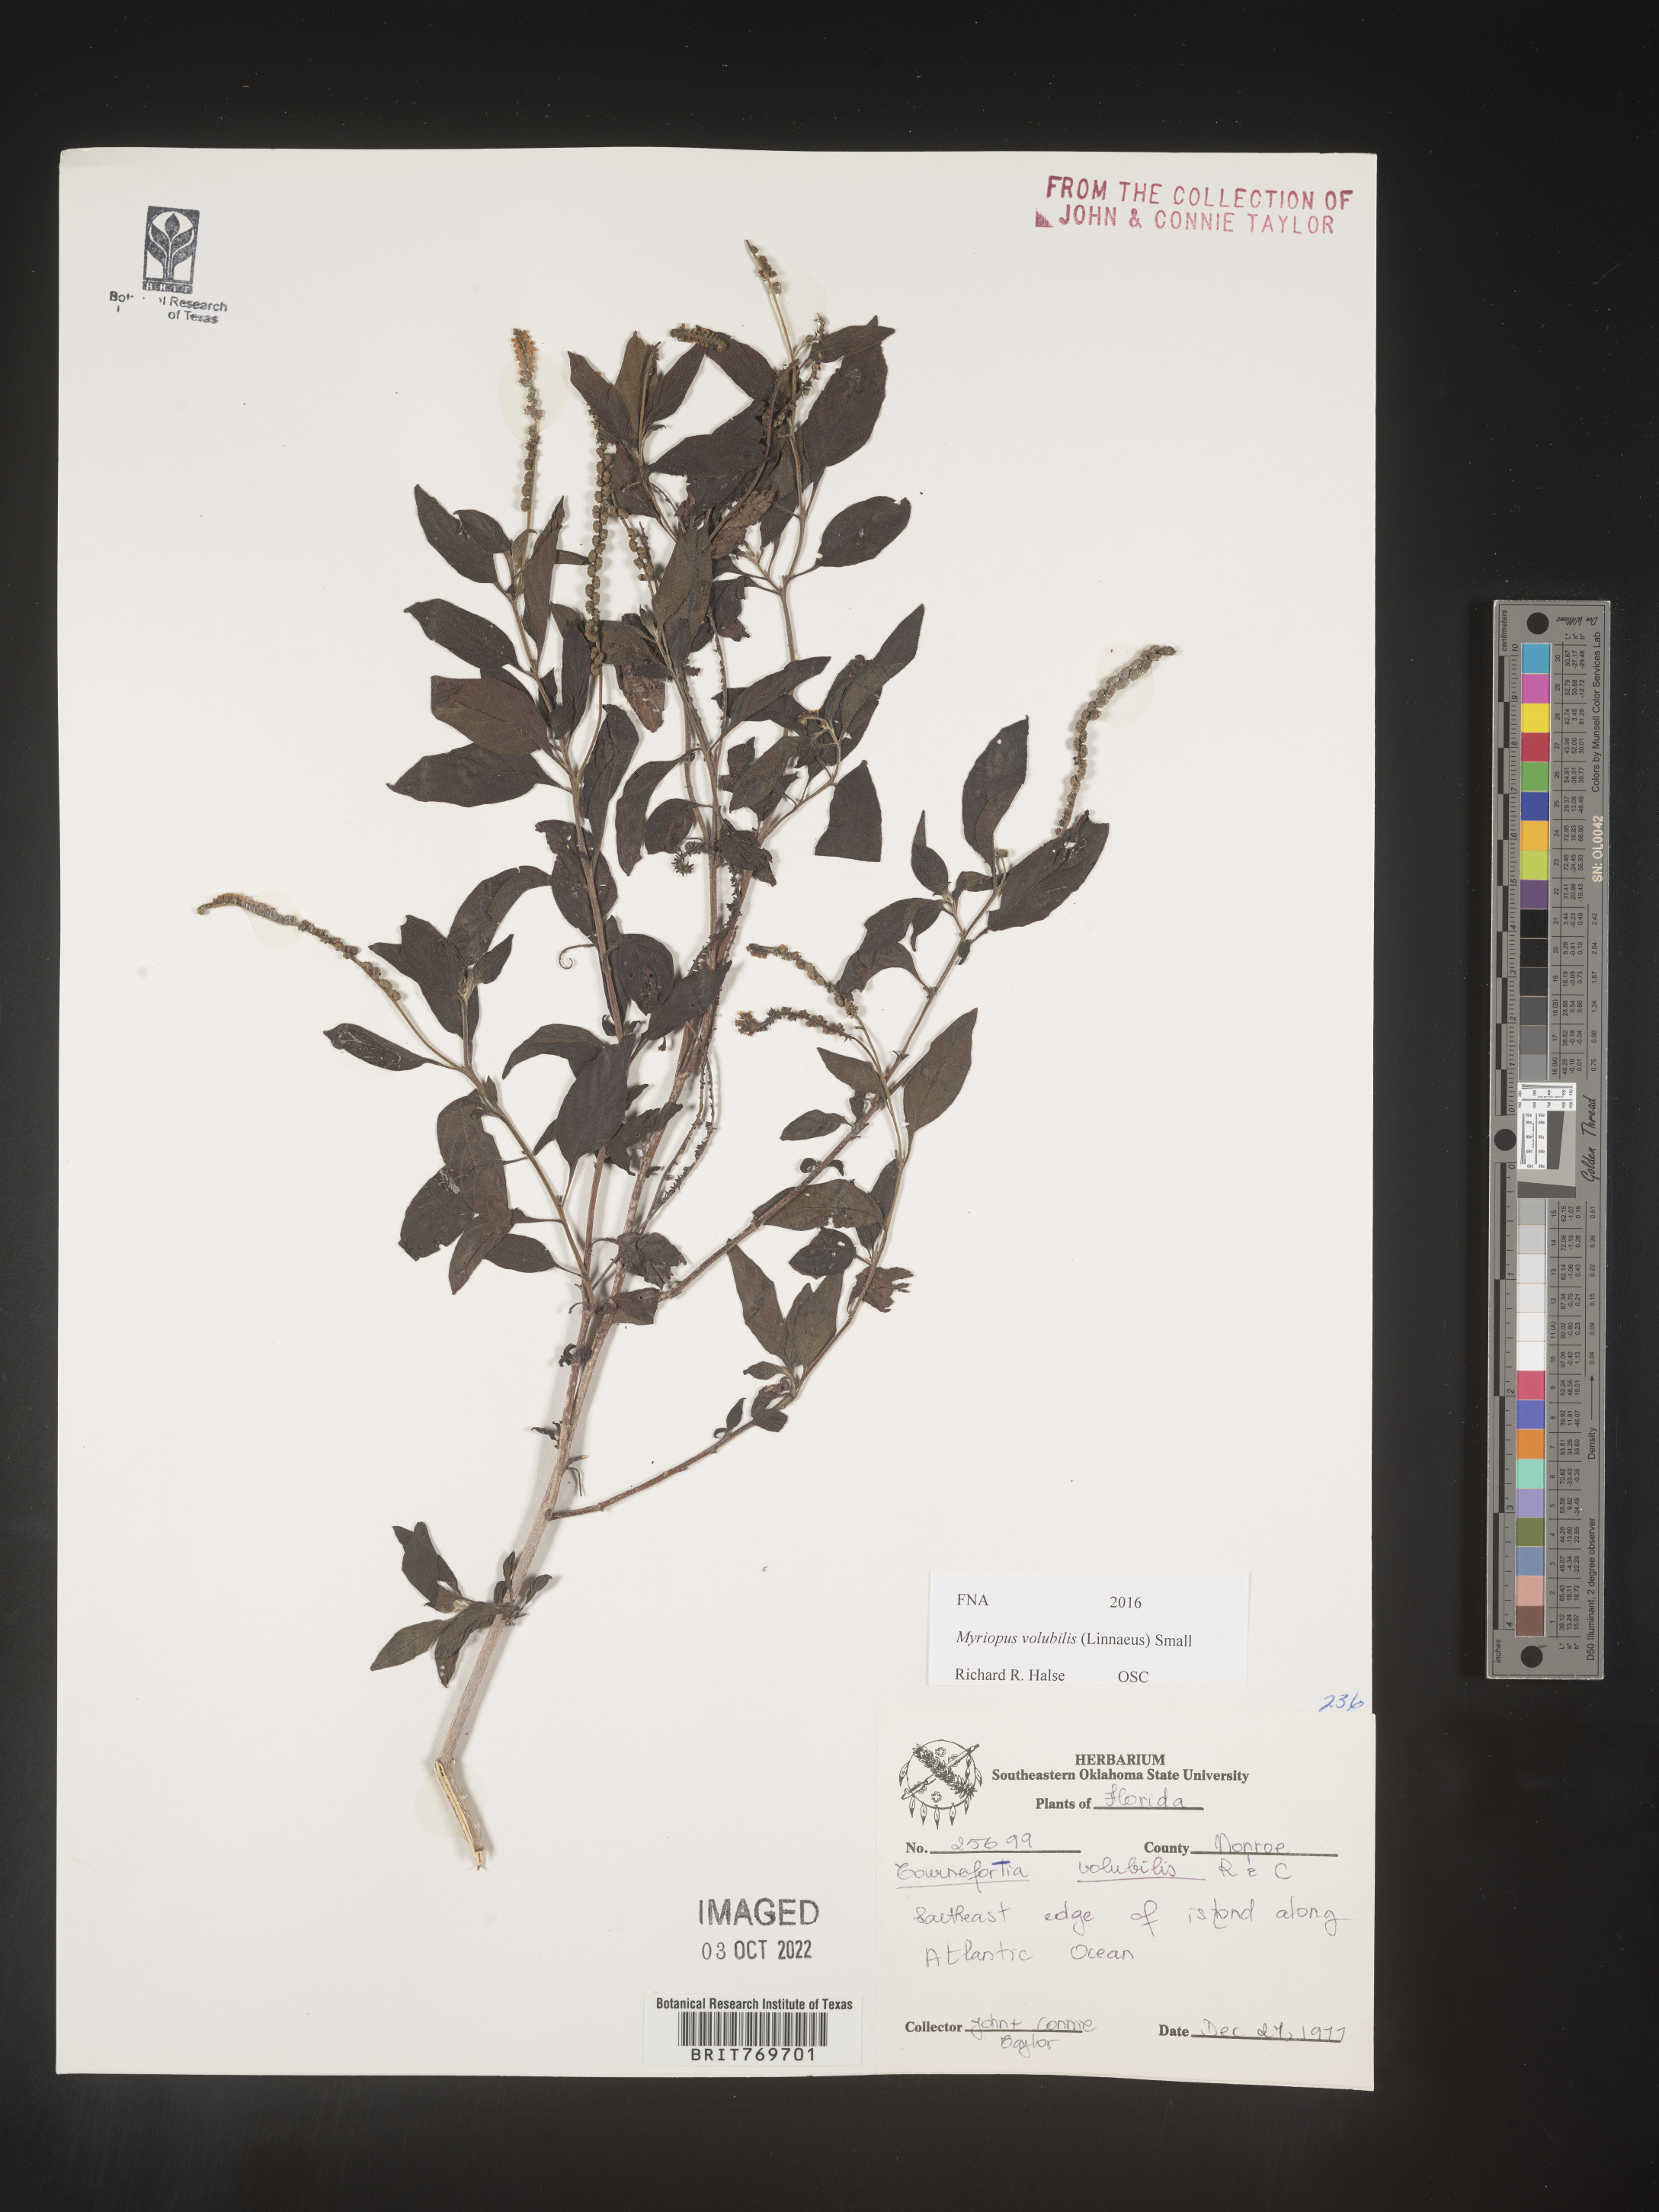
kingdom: Plantae
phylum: Tracheophyta
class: Magnoliopsida
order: Boraginales
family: Heliotropiaceae
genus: Myriopus
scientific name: Myriopus
